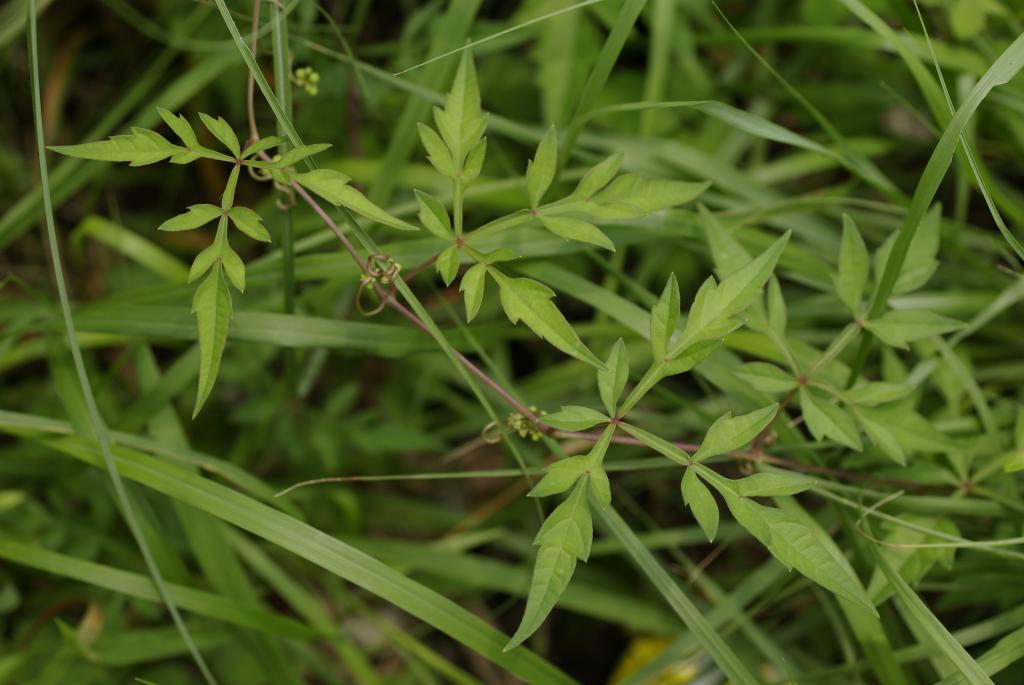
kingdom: Plantae
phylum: Tracheophyta
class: Magnoliopsida
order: Vitales
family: Vitaceae
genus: Ampelopsis
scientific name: Ampelopsis japonica
